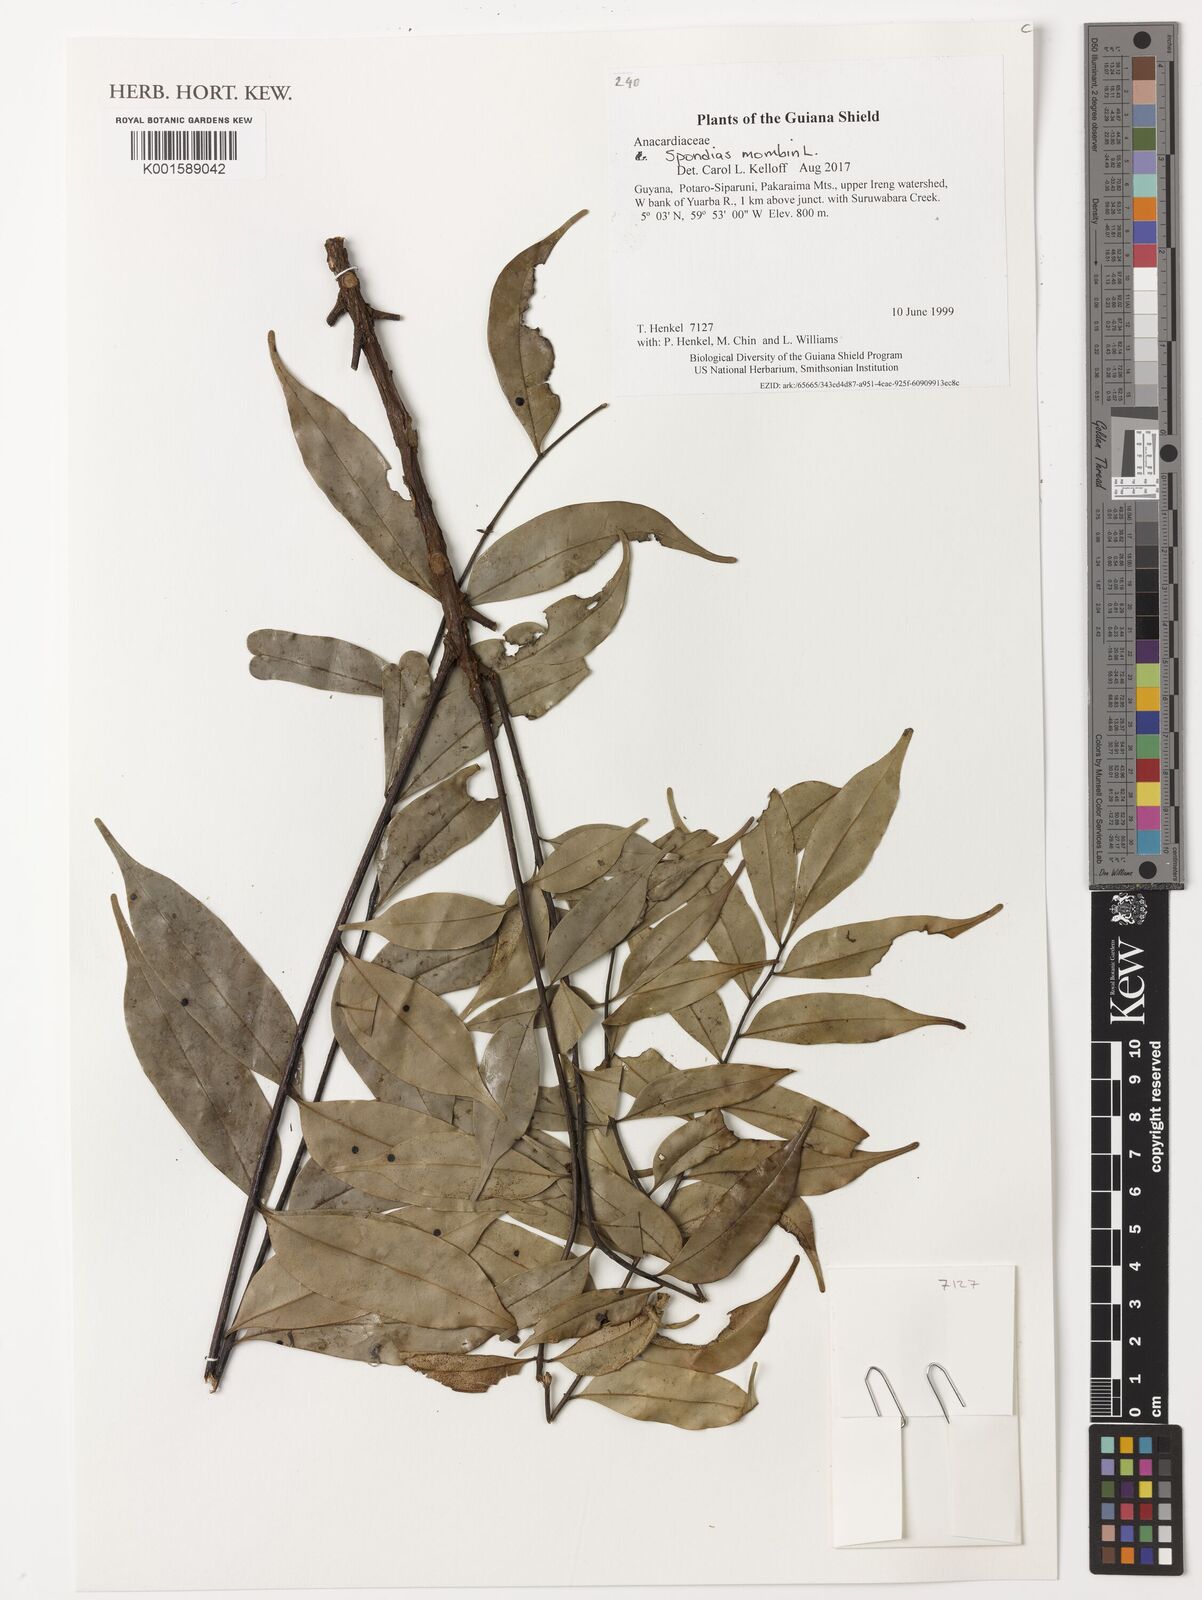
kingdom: Plantae
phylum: Tracheophyta
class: Magnoliopsida
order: Sapindales
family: Anacardiaceae
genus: Spondias
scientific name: Spondias mombin
